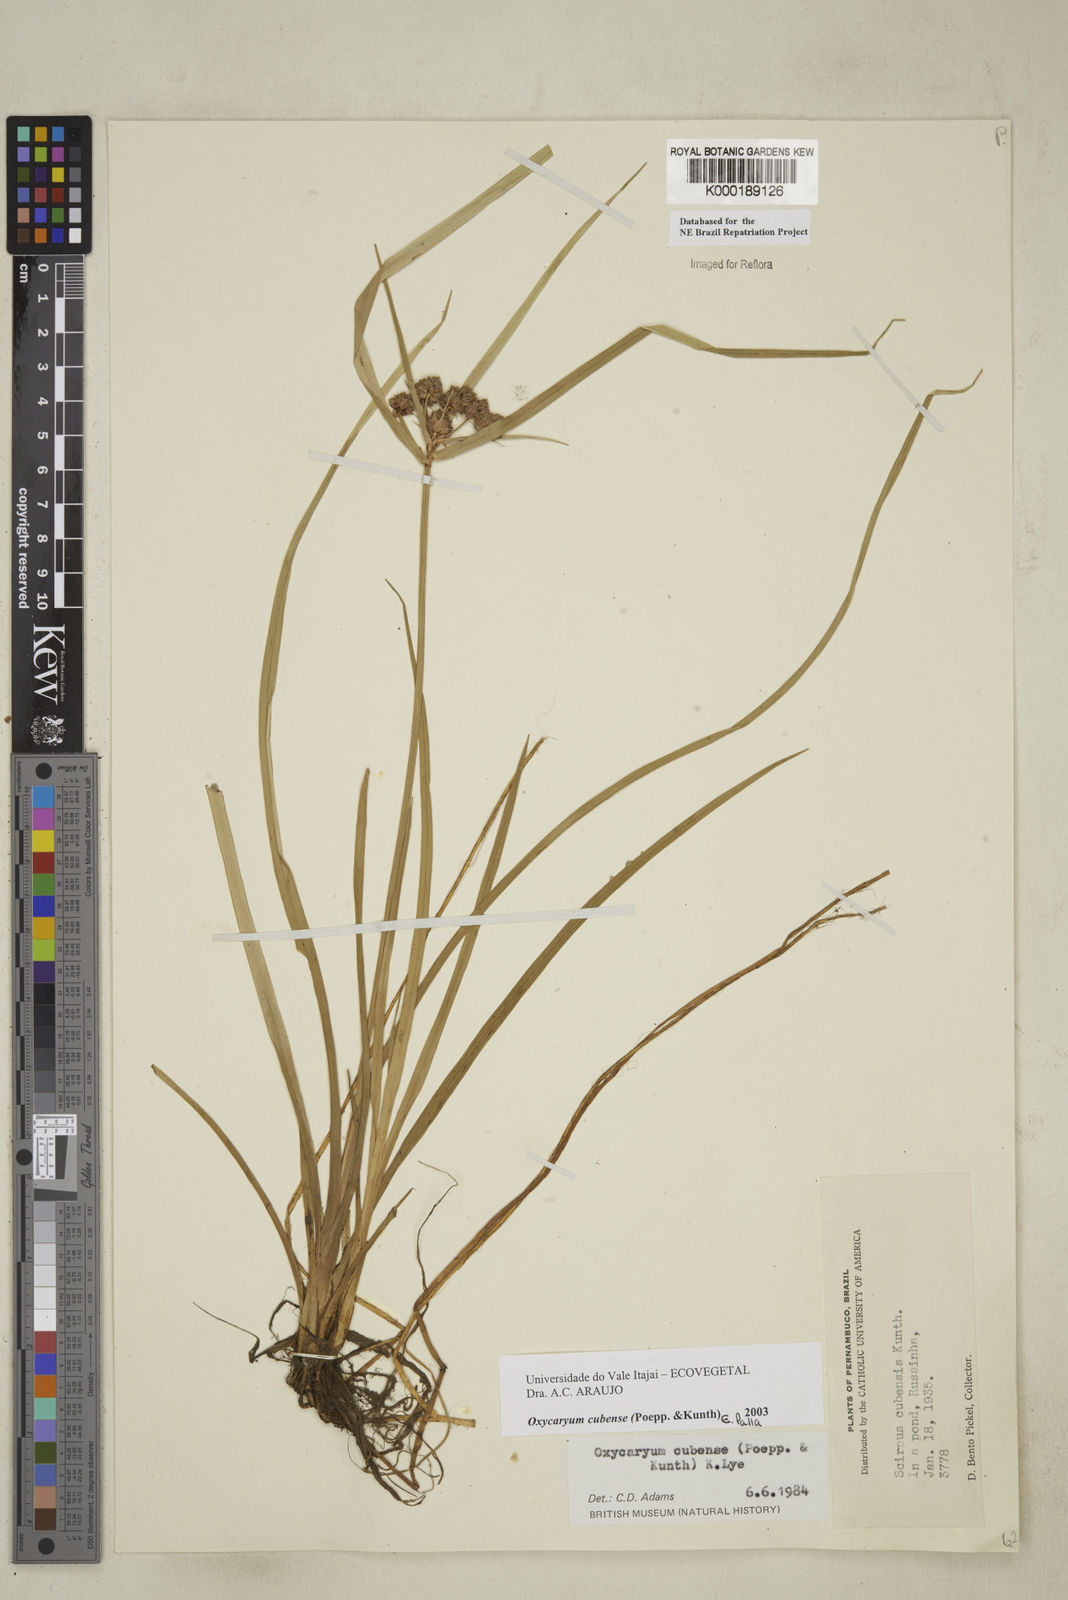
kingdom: Plantae
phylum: Tracheophyta
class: Liliopsida
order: Poales
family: Cyperaceae
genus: Cyperus
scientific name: Cyperus blepharoleptos
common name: Cuban bulrush
